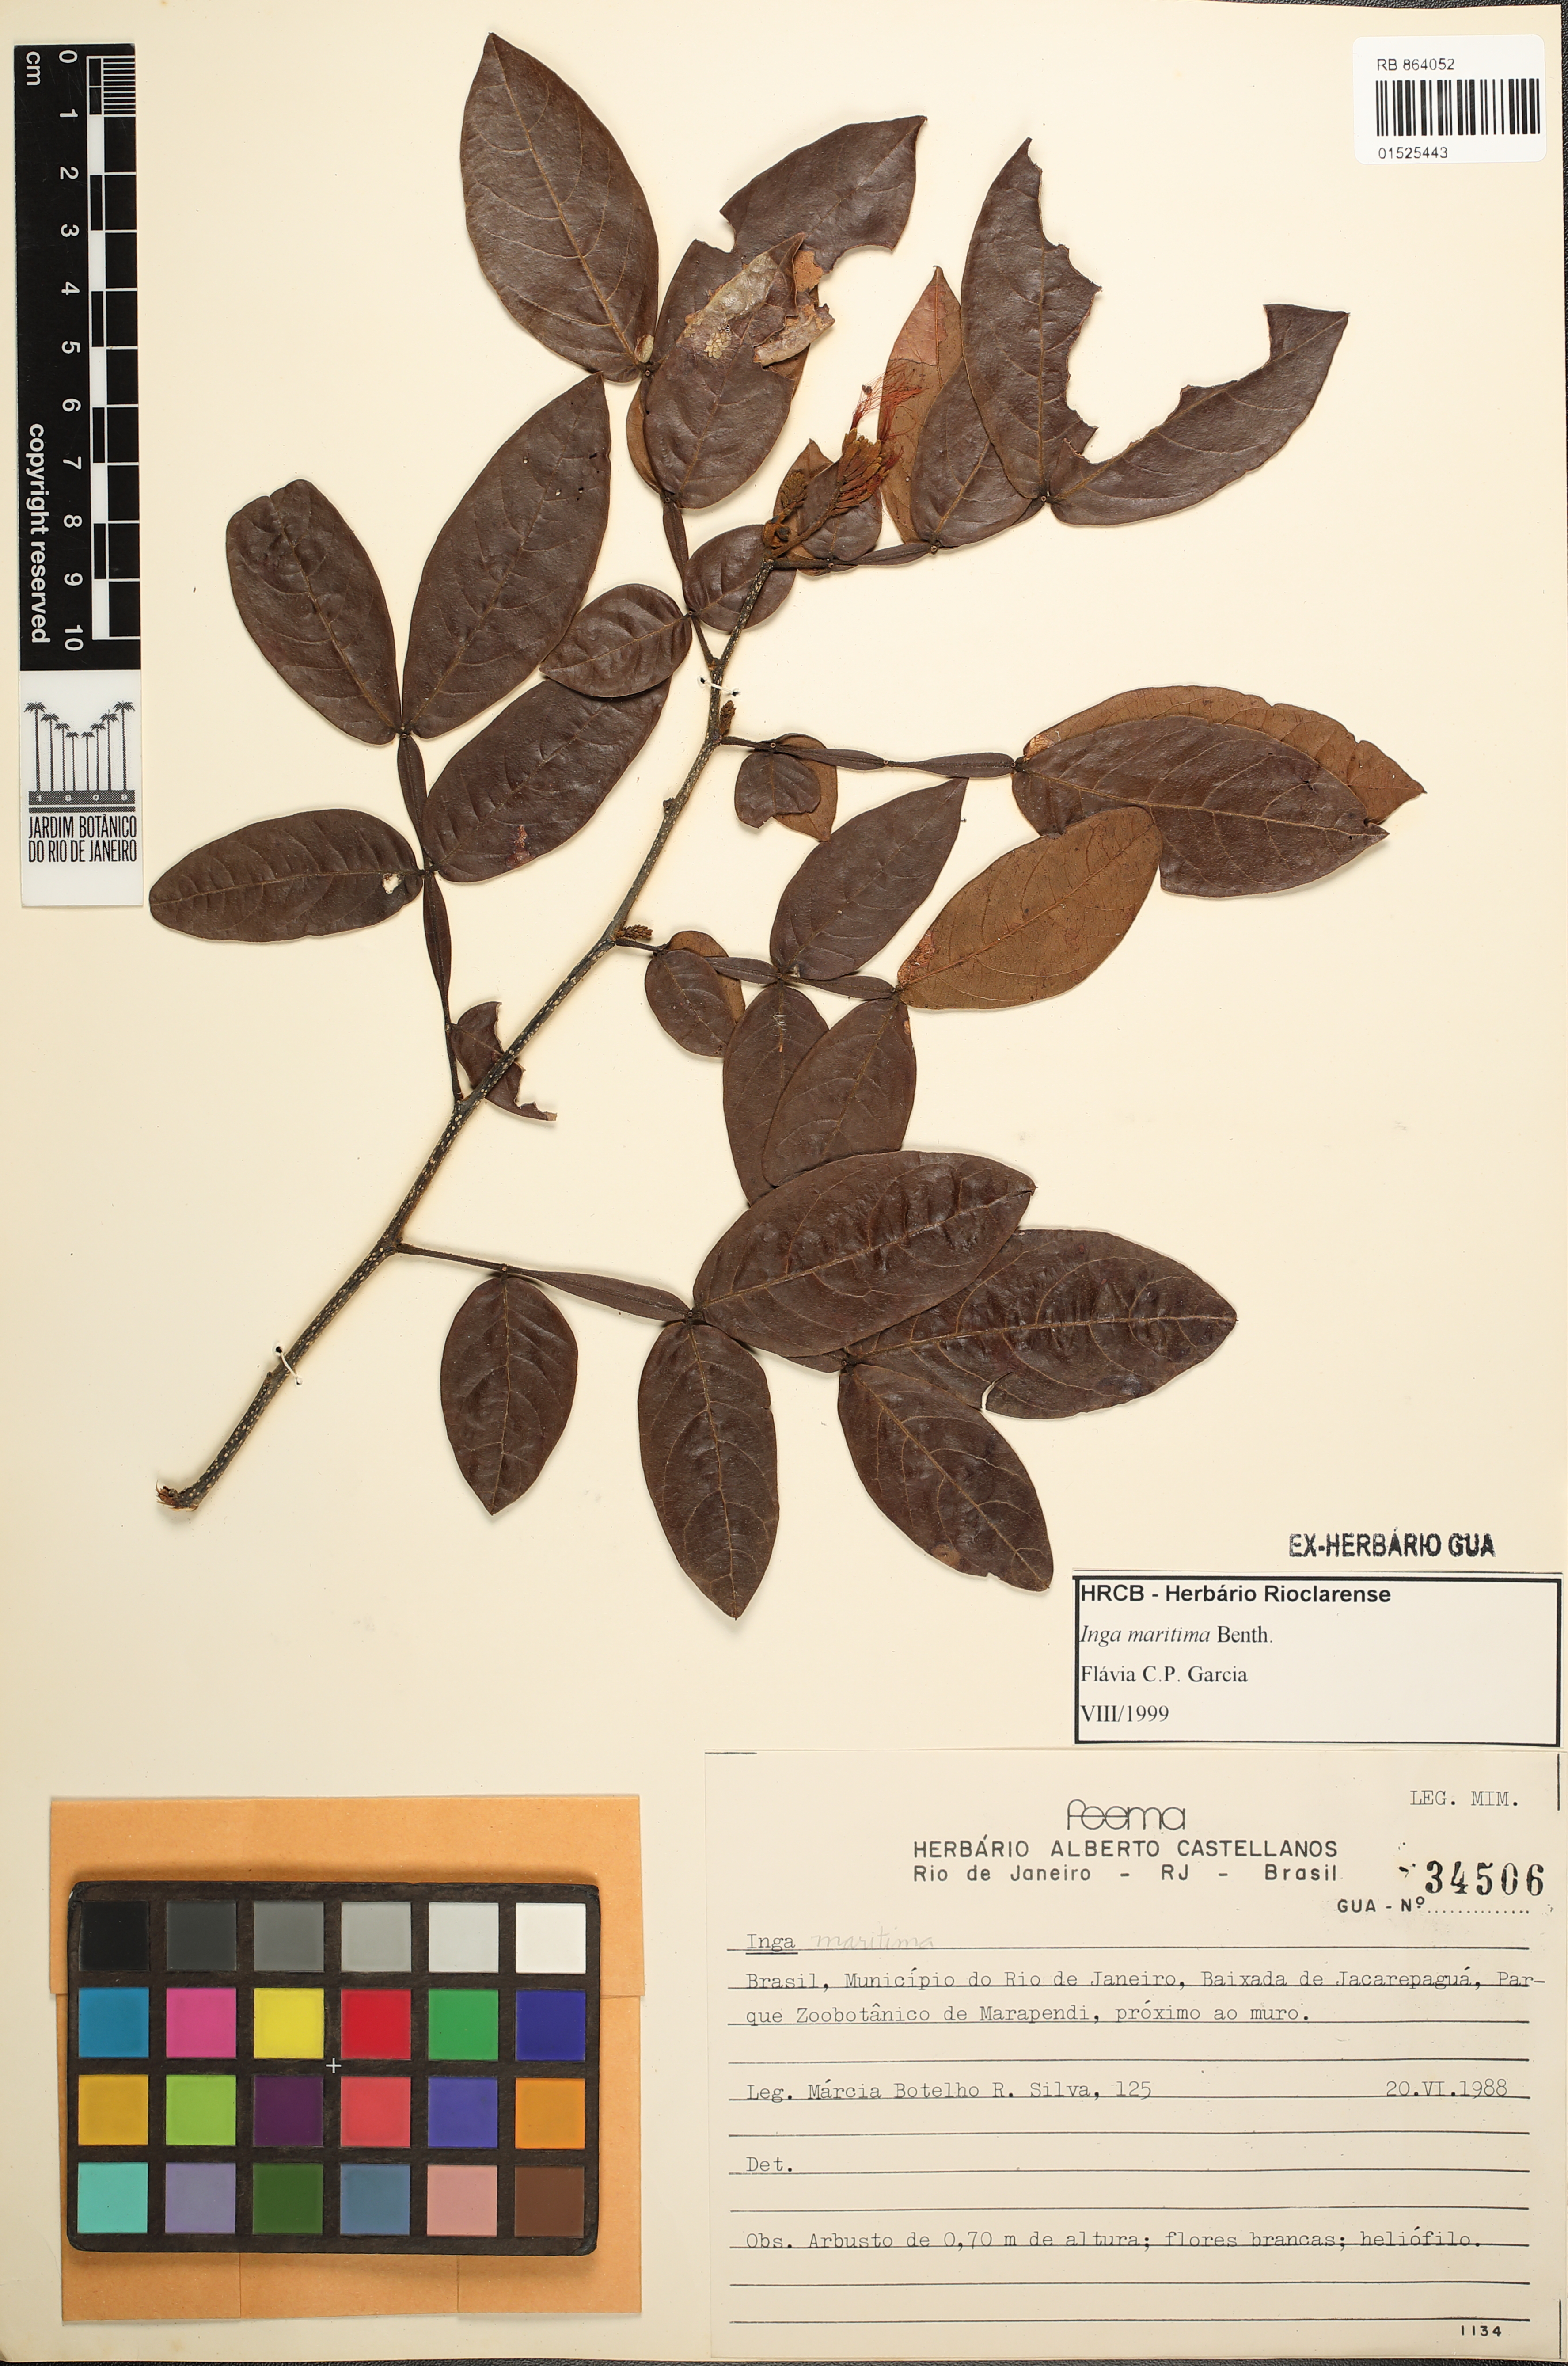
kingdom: Plantae
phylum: Tracheophyta
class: Magnoliopsida
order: Fabales
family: Fabaceae
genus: Inga
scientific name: Inga maritima
